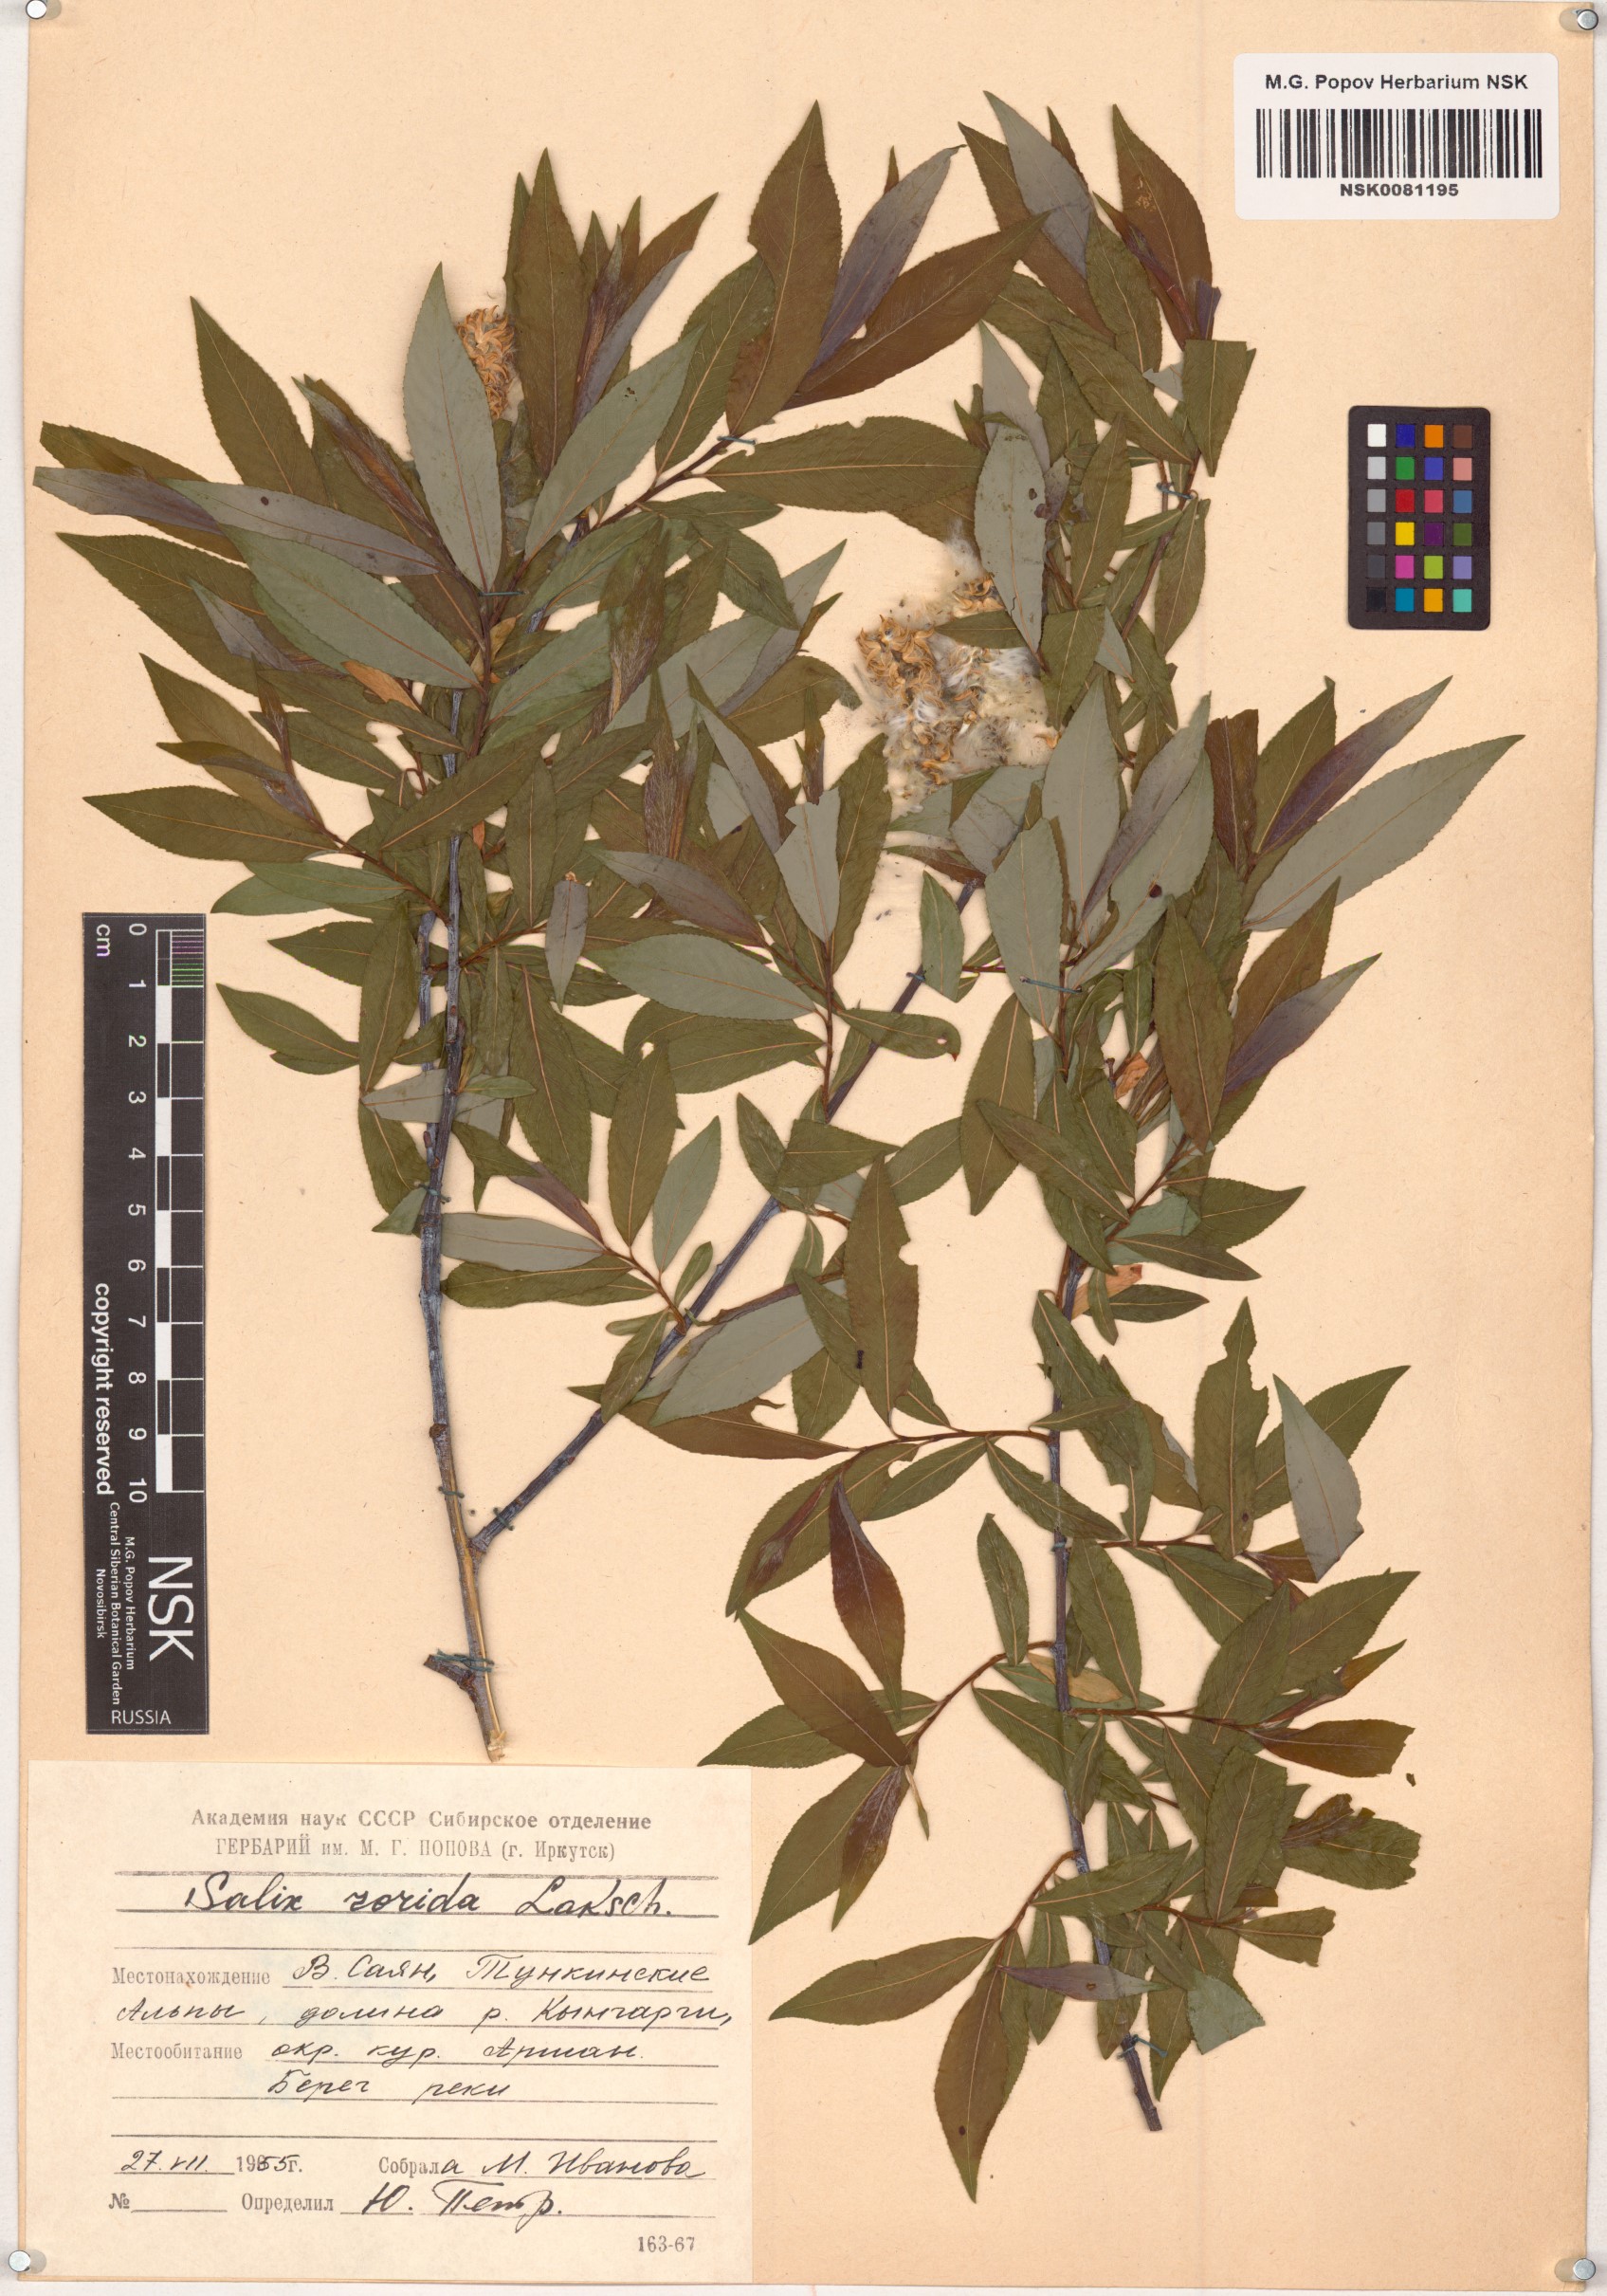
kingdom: Plantae
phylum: Tracheophyta
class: Magnoliopsida
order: Malpighiales
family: Salicaceae
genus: Salix
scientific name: Salix rorida
